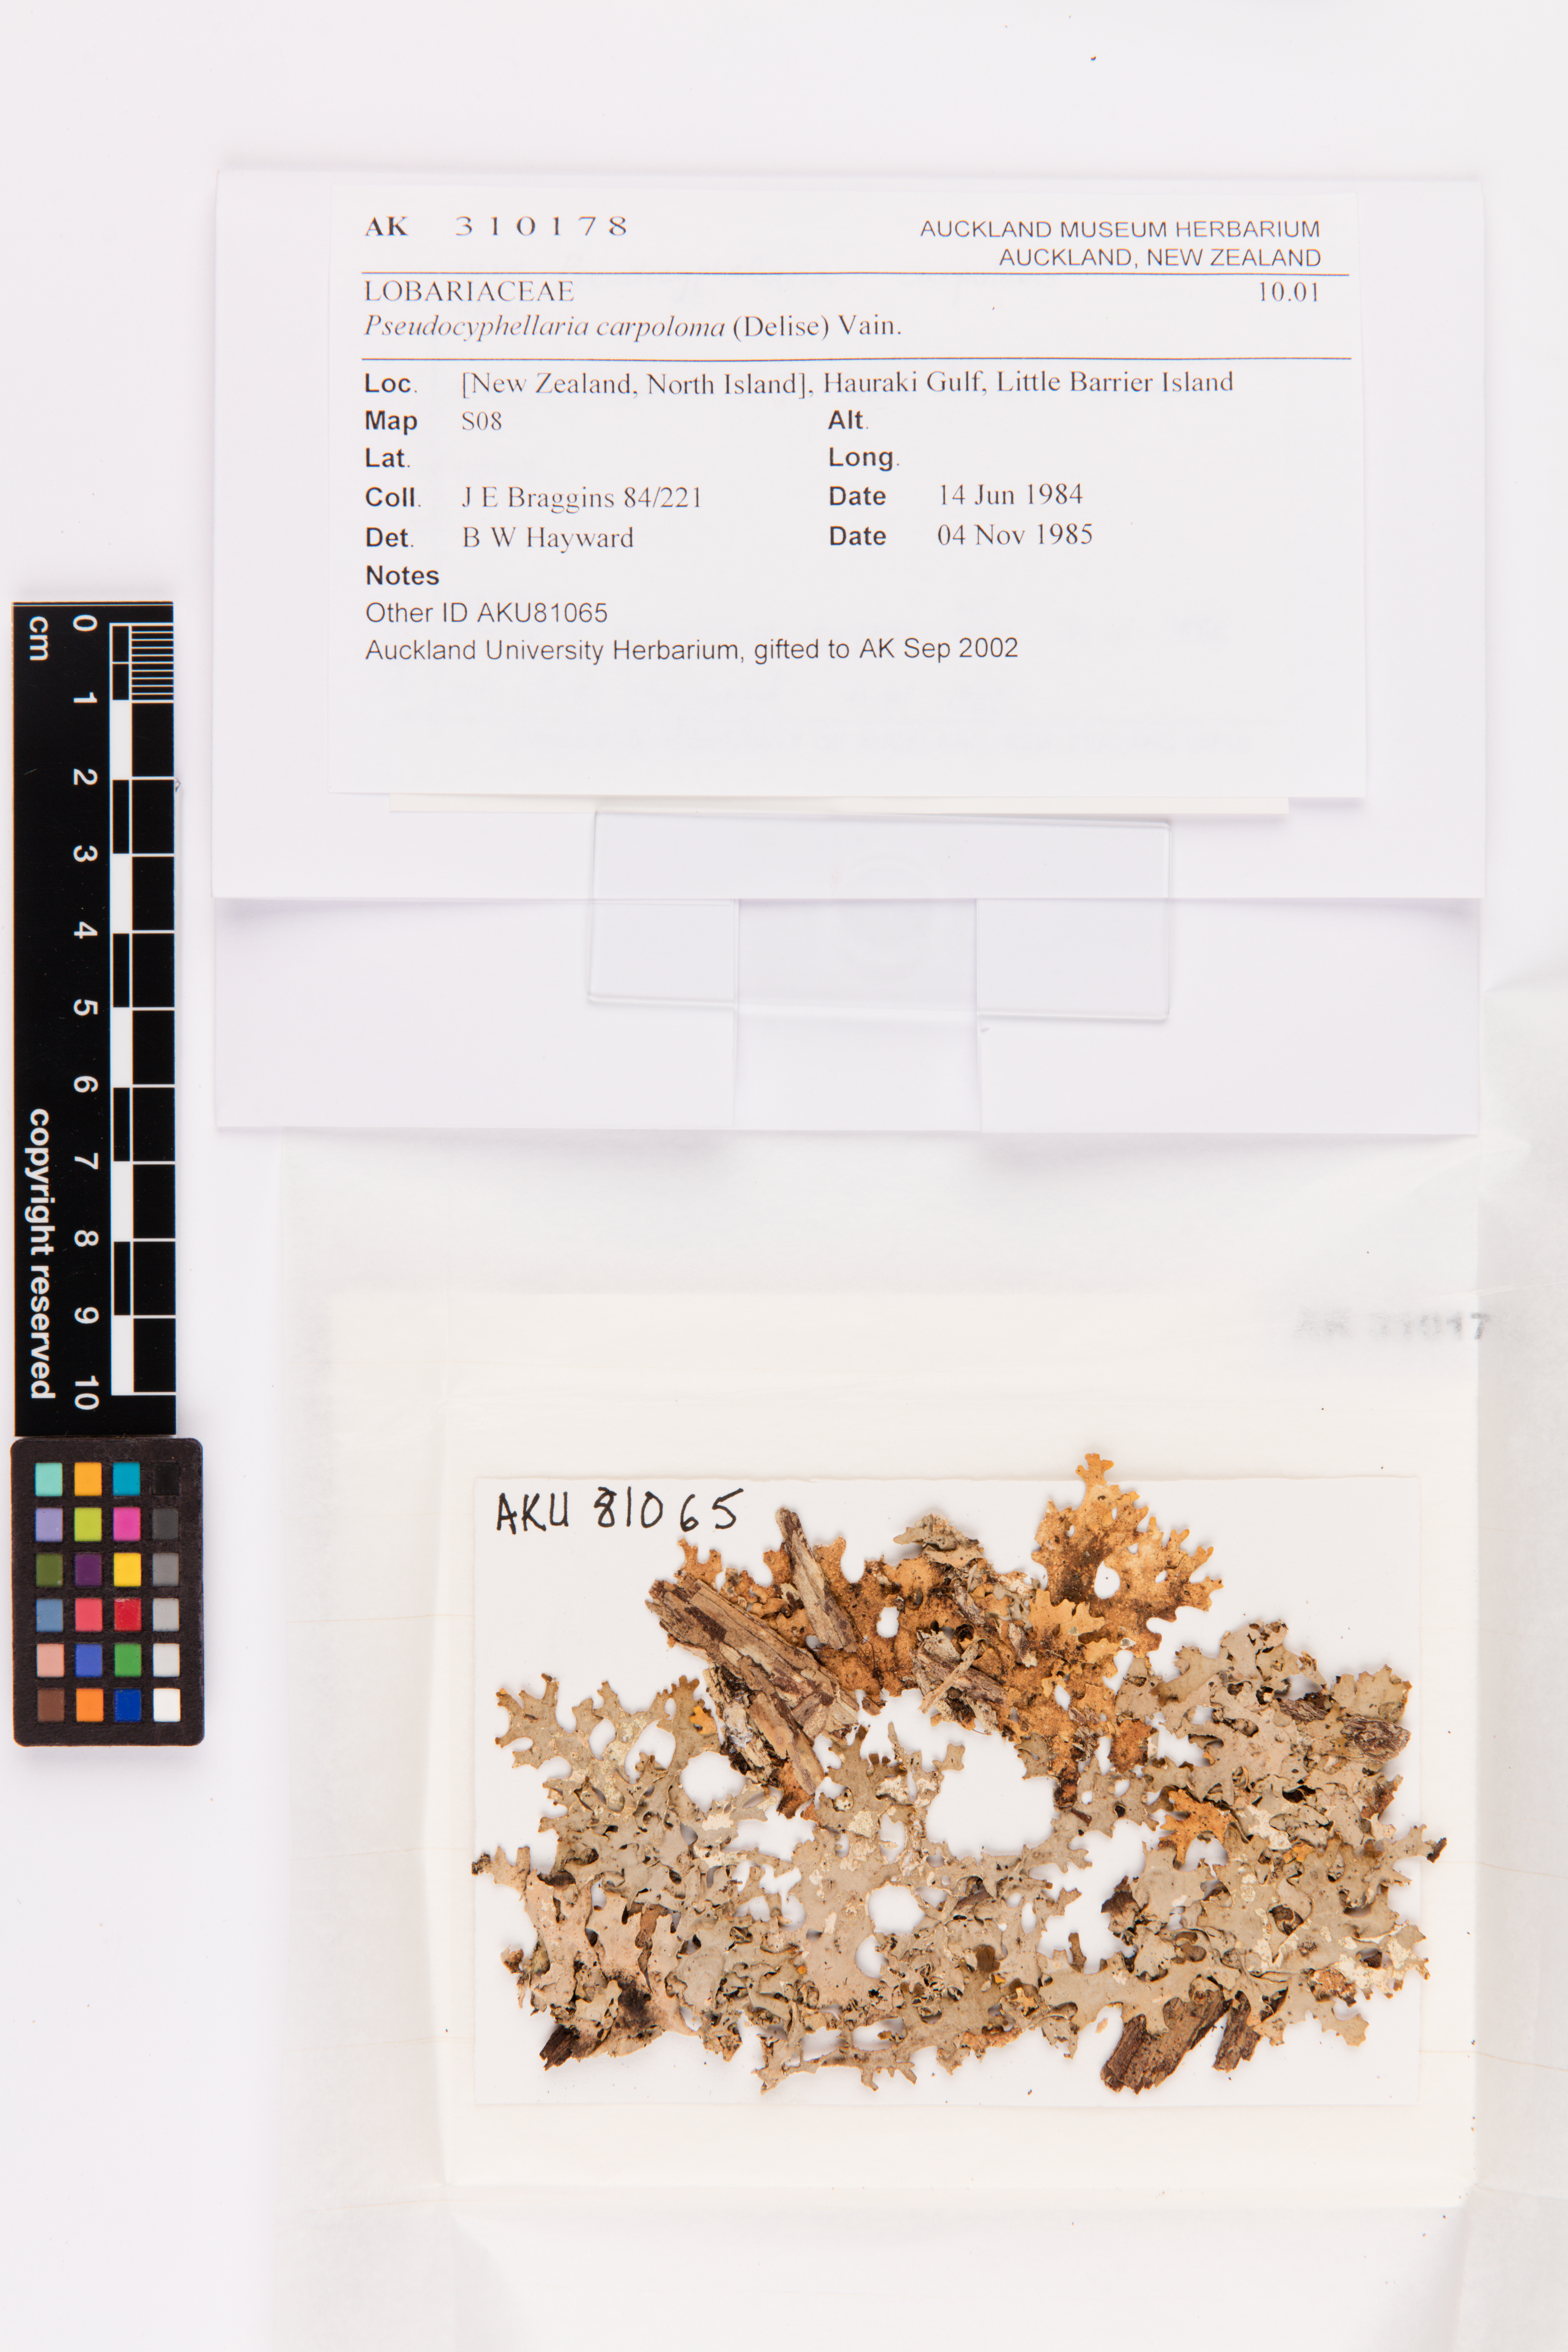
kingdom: Fungi
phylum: Ascomycota
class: Lecanoromycetes
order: Peltigerales
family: Lobariaceae
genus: Pseudocyphellaria
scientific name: Pseudocyphellaria carpoloma
